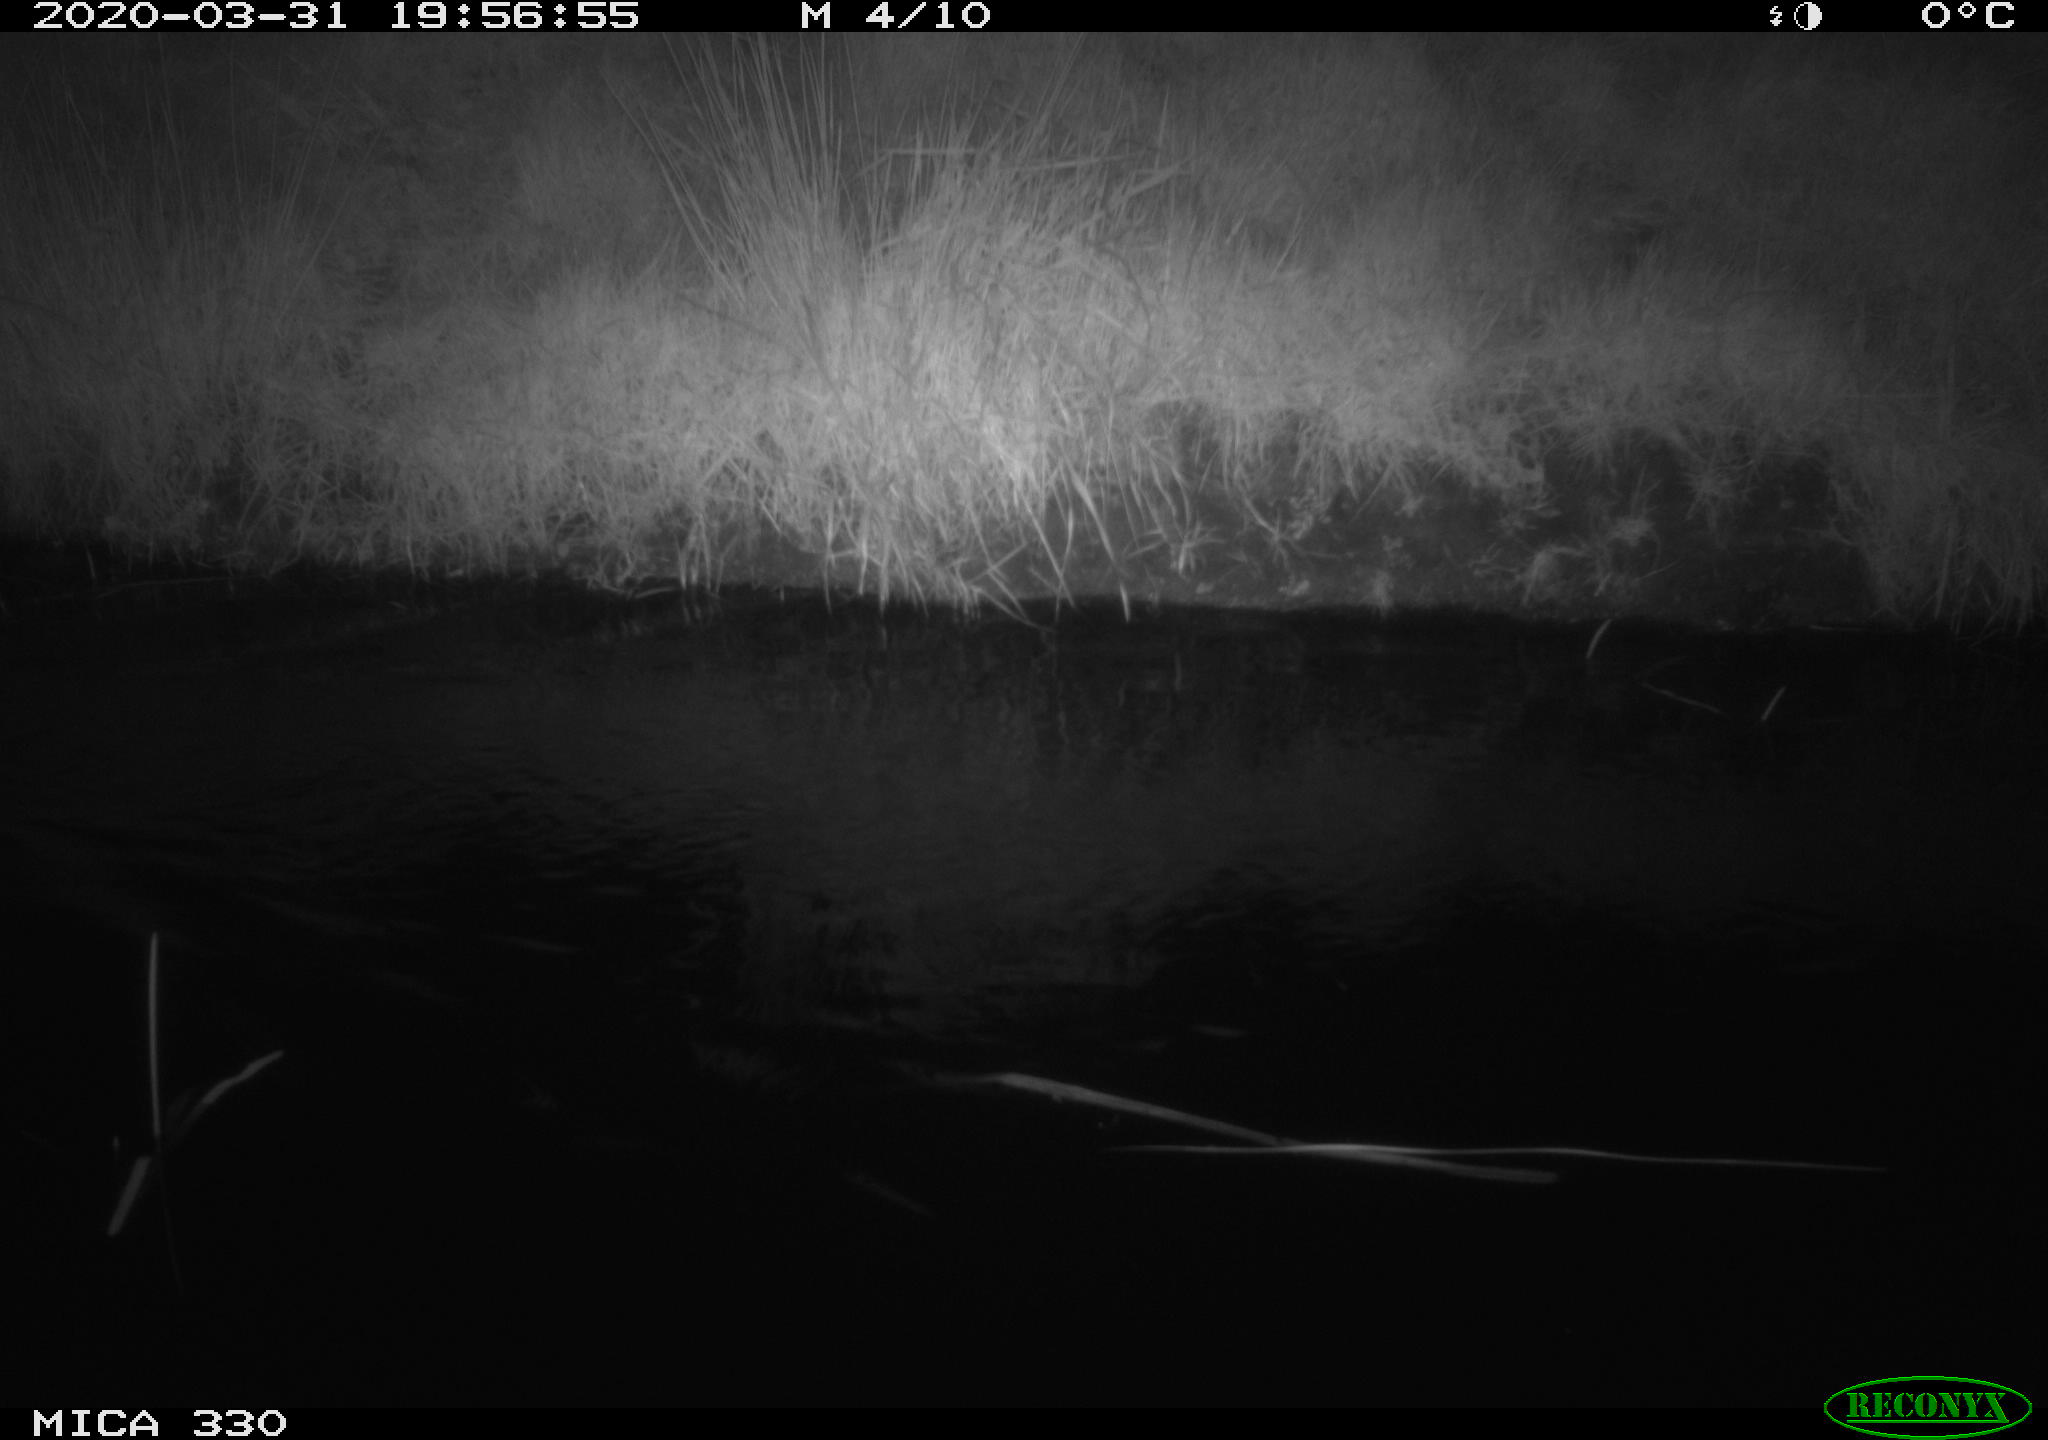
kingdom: Animalia
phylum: Chordata
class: Aves
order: Anseriformes
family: Anatidae
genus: Anas
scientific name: Anas platyrhynchos
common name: Mallard
